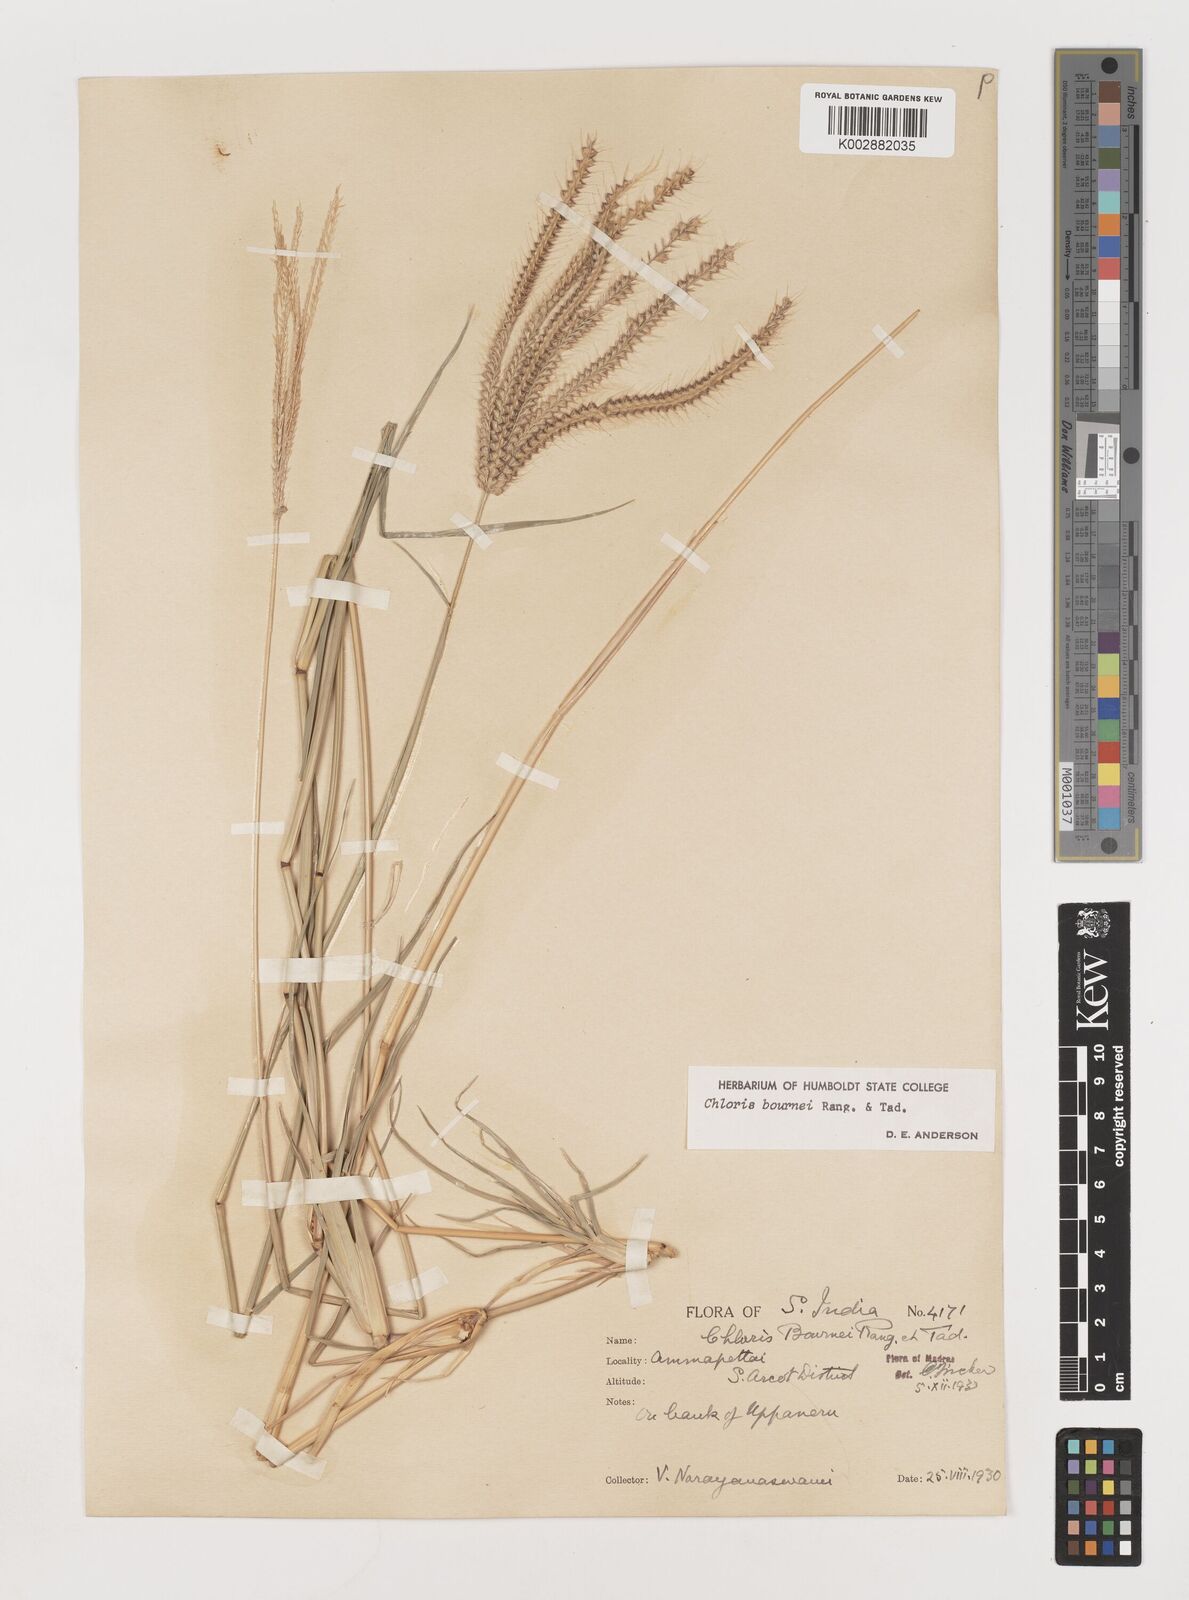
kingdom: Plantae
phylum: Tracheophyta
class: Liliopsida
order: Poales
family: Poaceae
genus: Chloris
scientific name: Chloris bournei
